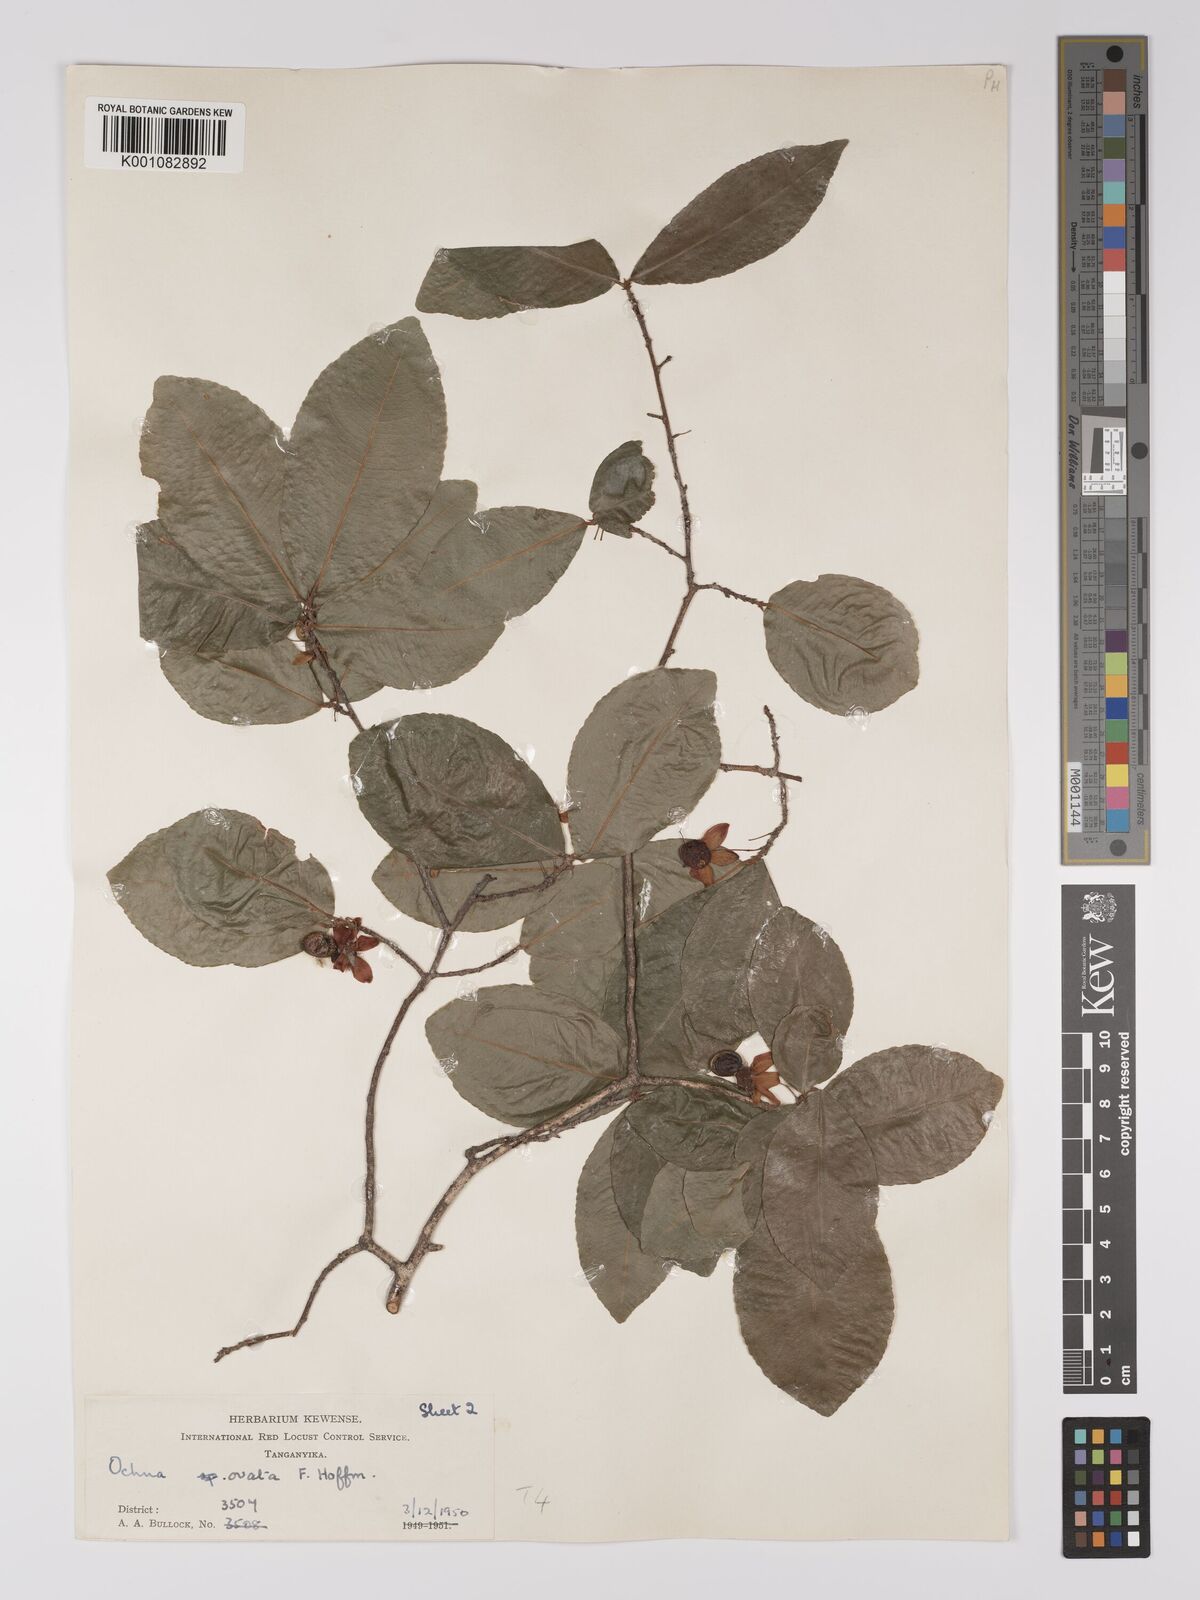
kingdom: Plantae
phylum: Tracheophyta
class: Magnoliopsida
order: Malpighiales
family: Ochnaceae
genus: Ochna
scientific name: Ochna ovata
